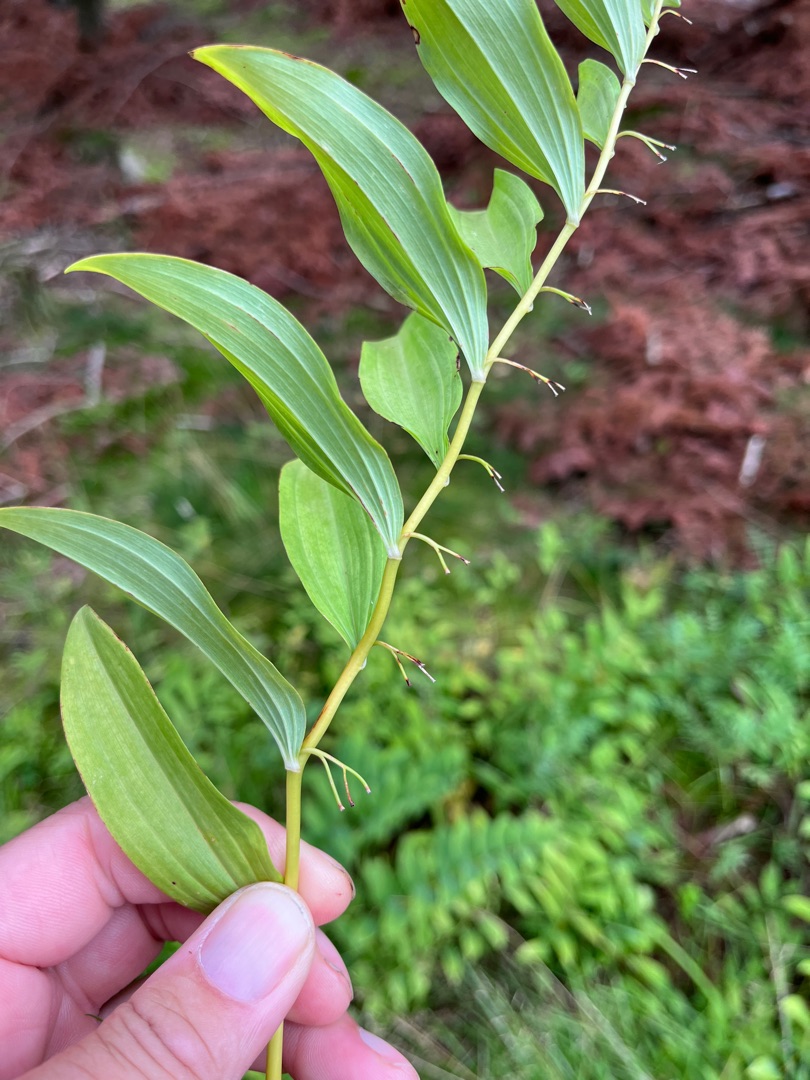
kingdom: Plantae
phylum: Tracheophyta
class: Liliopsida
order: Asparagales
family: Asparagaceae
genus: Polygonatum
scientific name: Polygonatum multiflorum
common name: Stor konval
